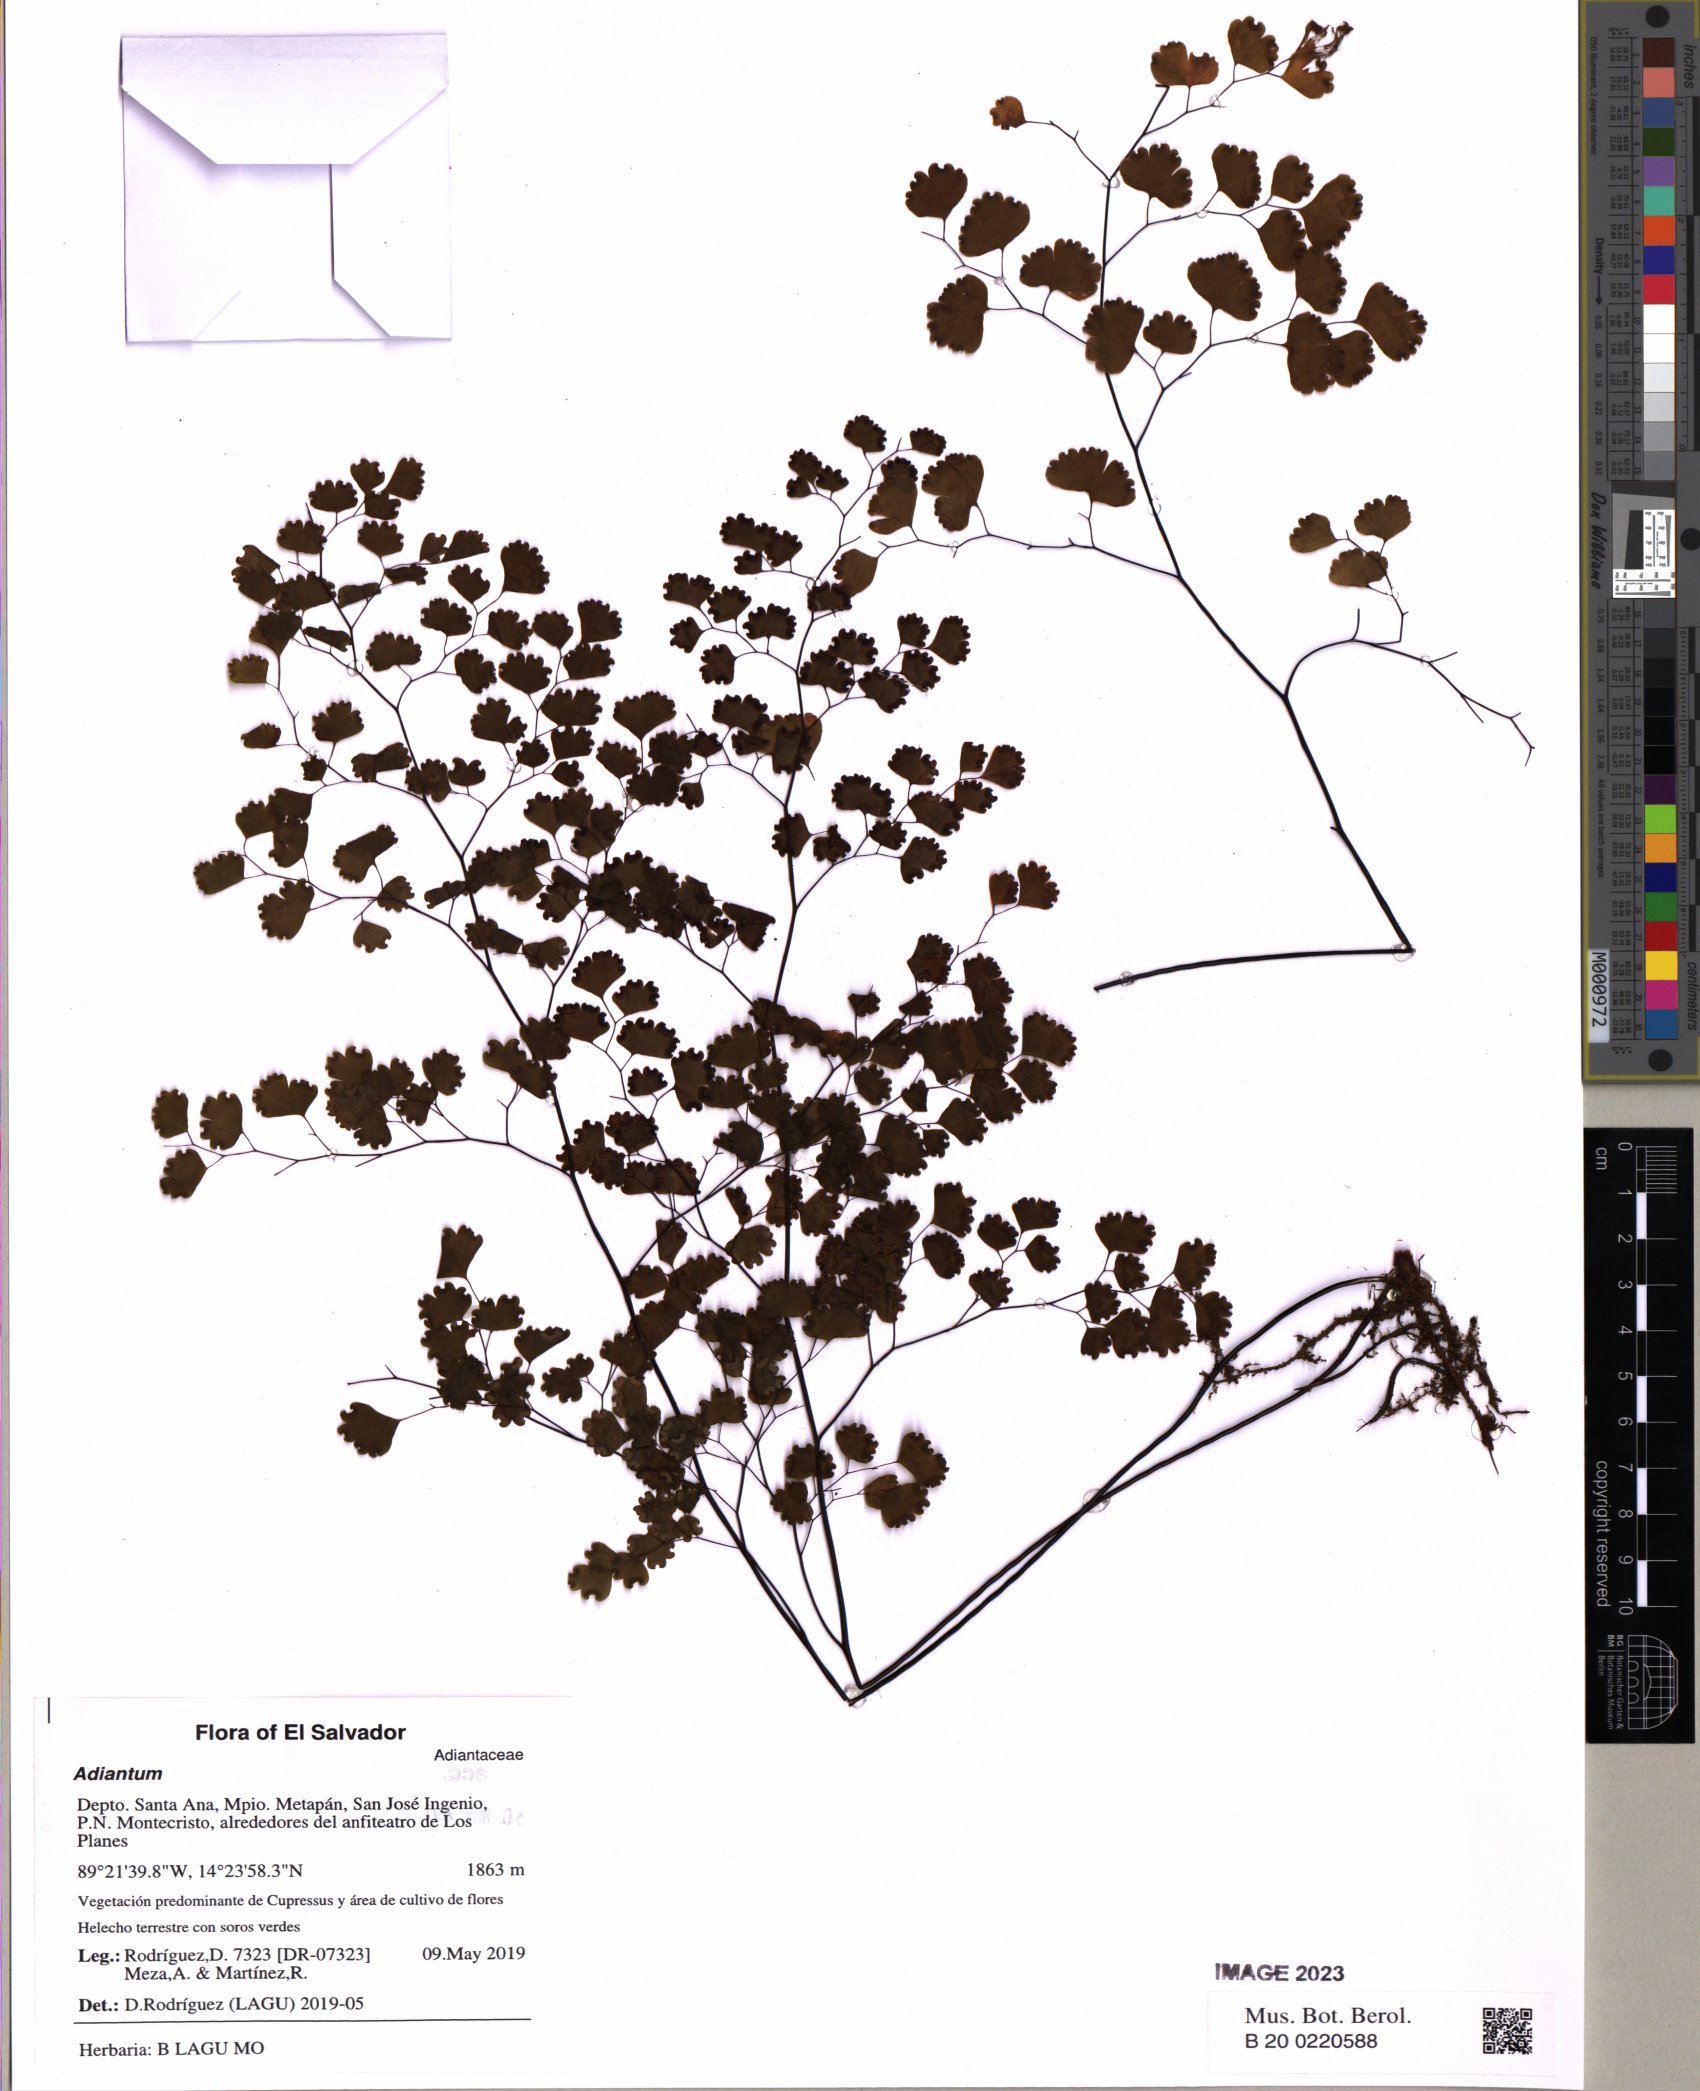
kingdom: Plantae
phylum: Tracheophyta
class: Polypodiopsida
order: Polypodiales
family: Pteridaceae
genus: Adiantum
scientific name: Adiantum poiretii
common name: Mexican maidenhair
